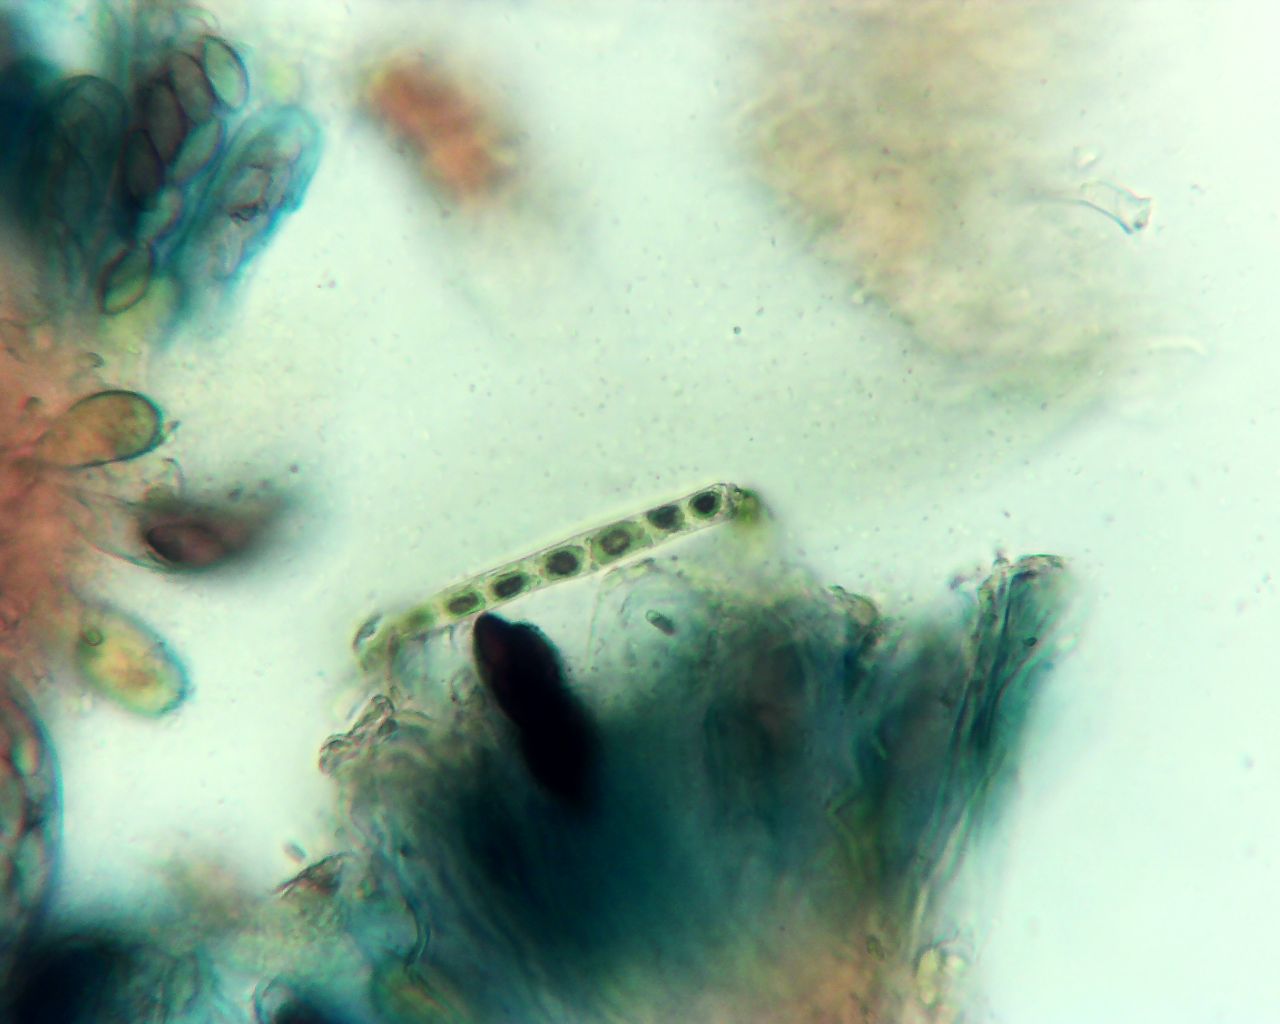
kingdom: Fungi
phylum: Ascomycota
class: Pezizomycetes
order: Pezizales
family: Ascobolaceae
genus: Saccobolus
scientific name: Saccobolus obscurus
